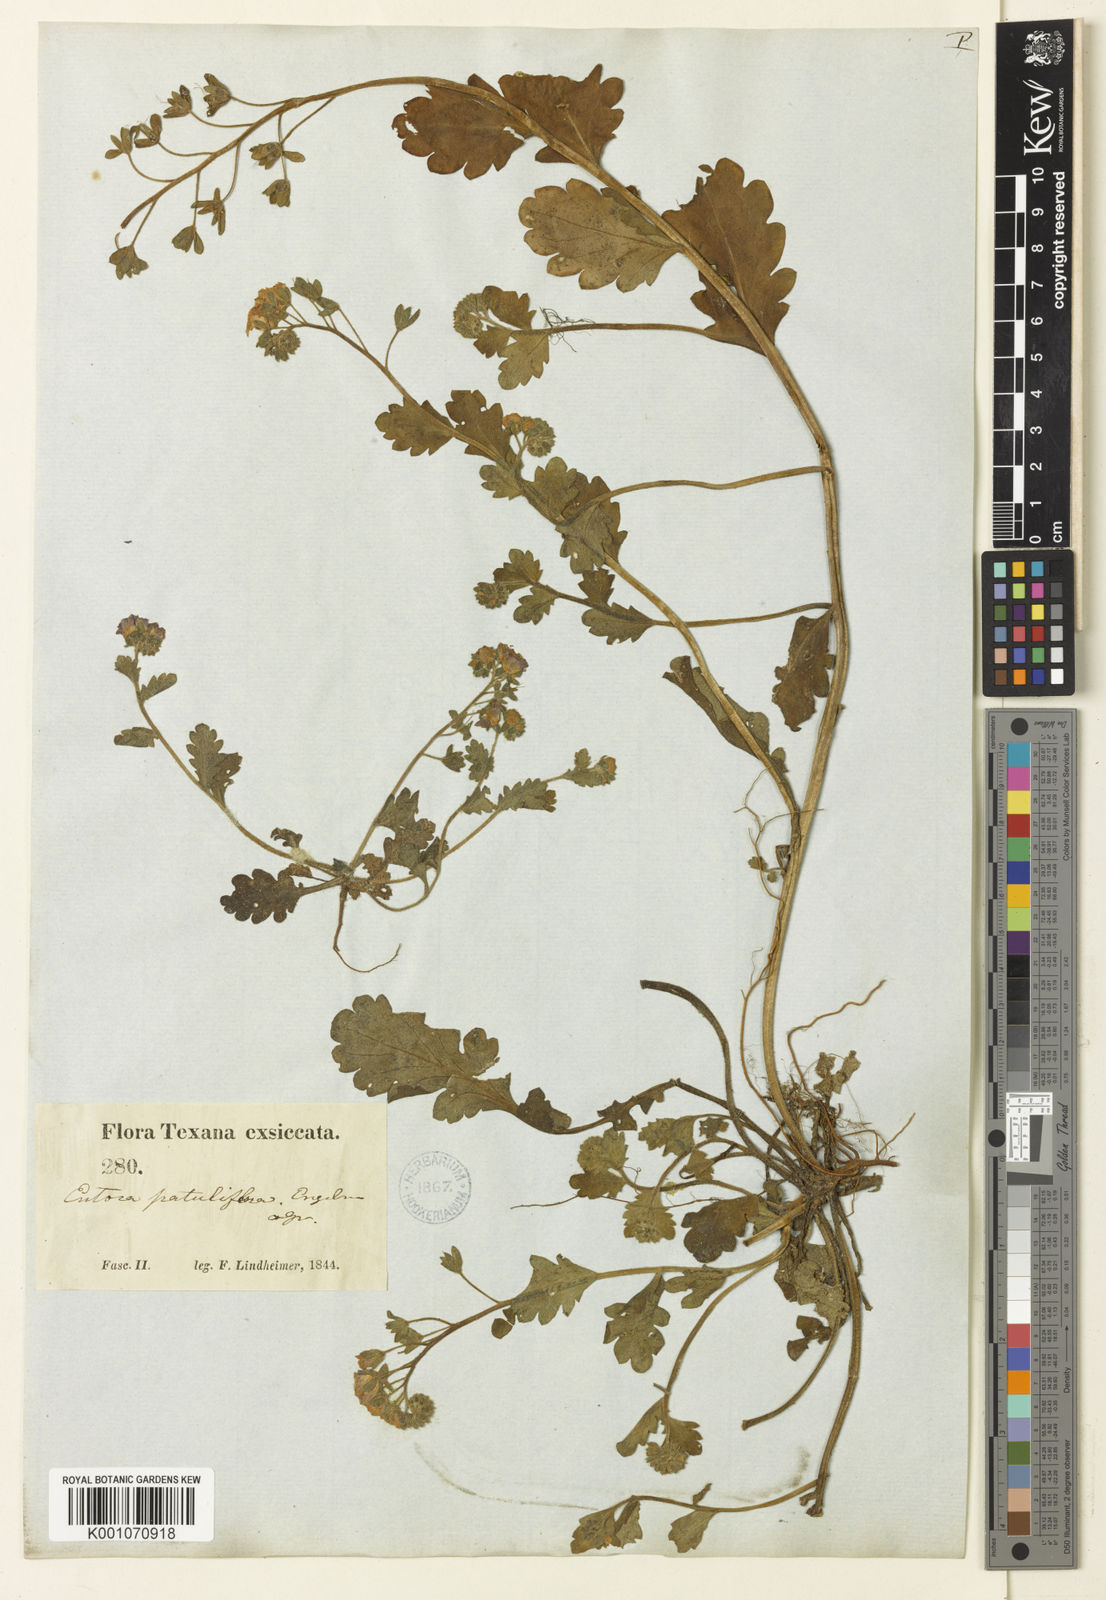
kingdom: Plantae
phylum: Tracheophyta
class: Magnoliopsida
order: Boraginales
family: Hydrophyllaceae
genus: Phacelia
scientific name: Phacelia patuliflora
